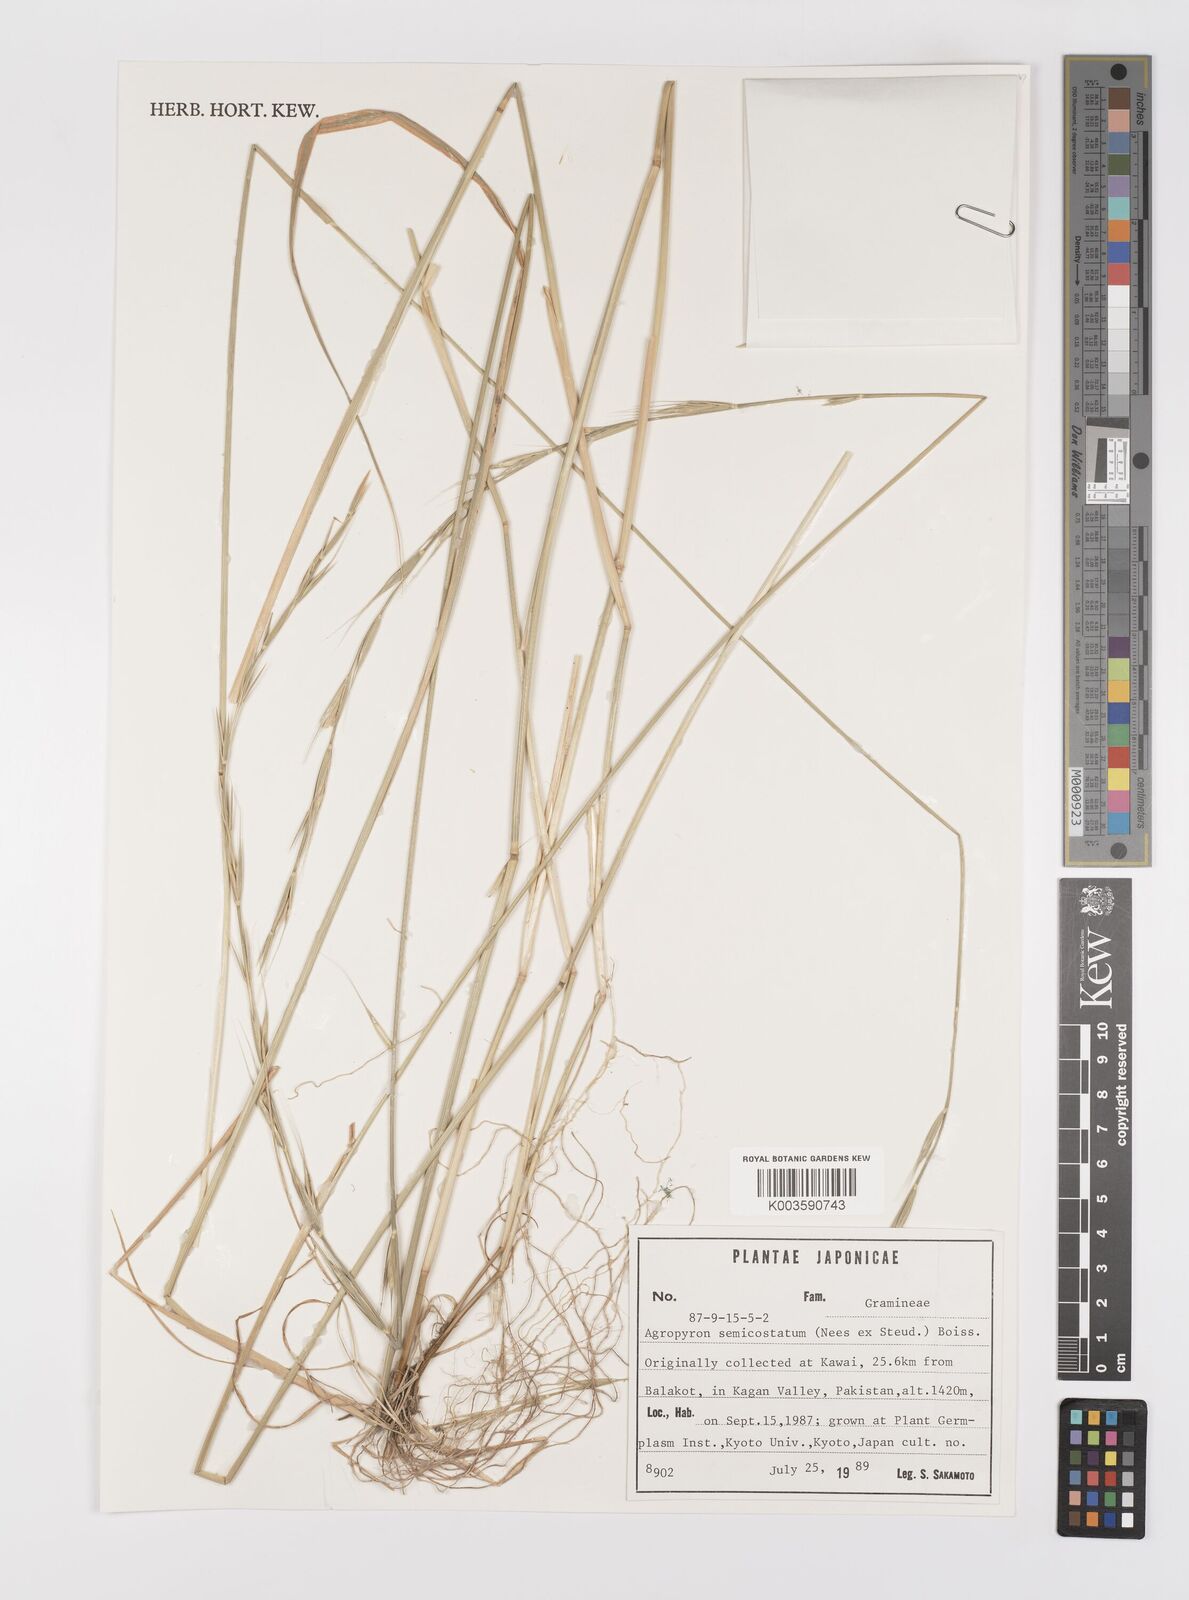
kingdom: Plantae
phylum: Tracheophyta
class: Liliopsida
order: Poales
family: Poaceae
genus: Elymus
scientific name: Elymus semicostatus
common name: Drooping wildrye
